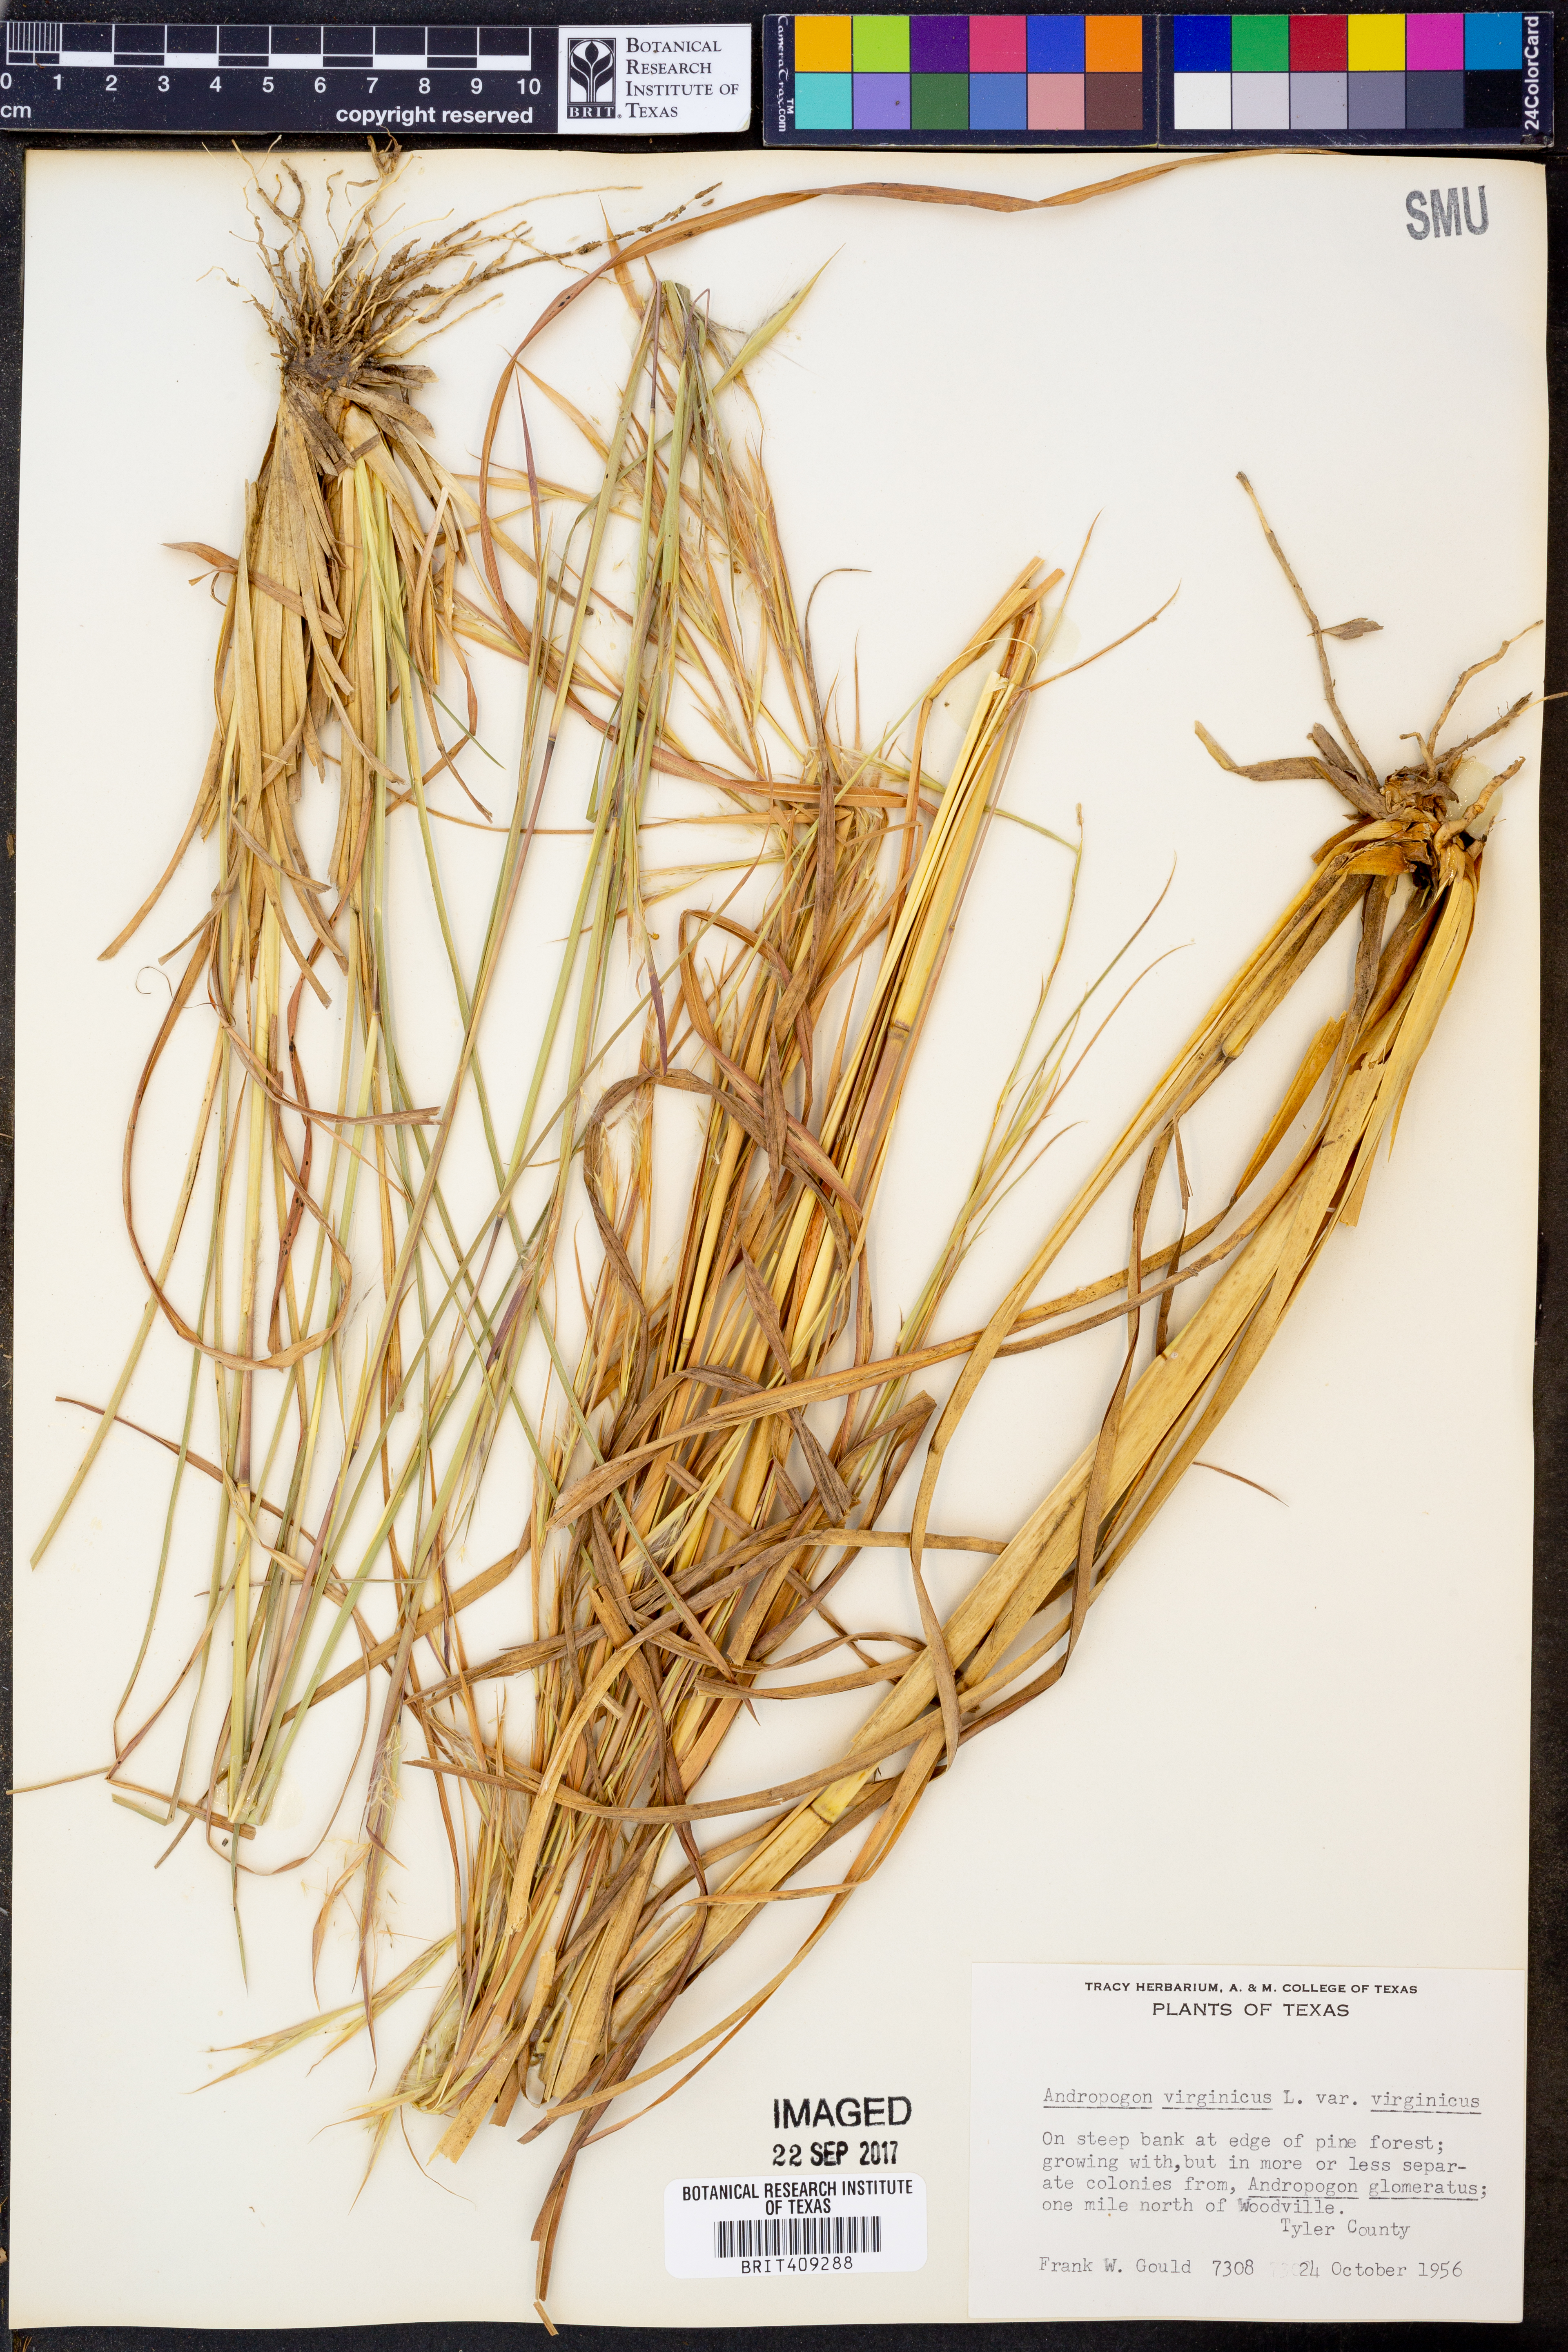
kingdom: Plantae
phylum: Tracheophyta
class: Liliopsida
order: Poales
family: Poaceae
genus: Andropogon
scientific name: Andropogon virginicus
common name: Broomsedge bluestem
